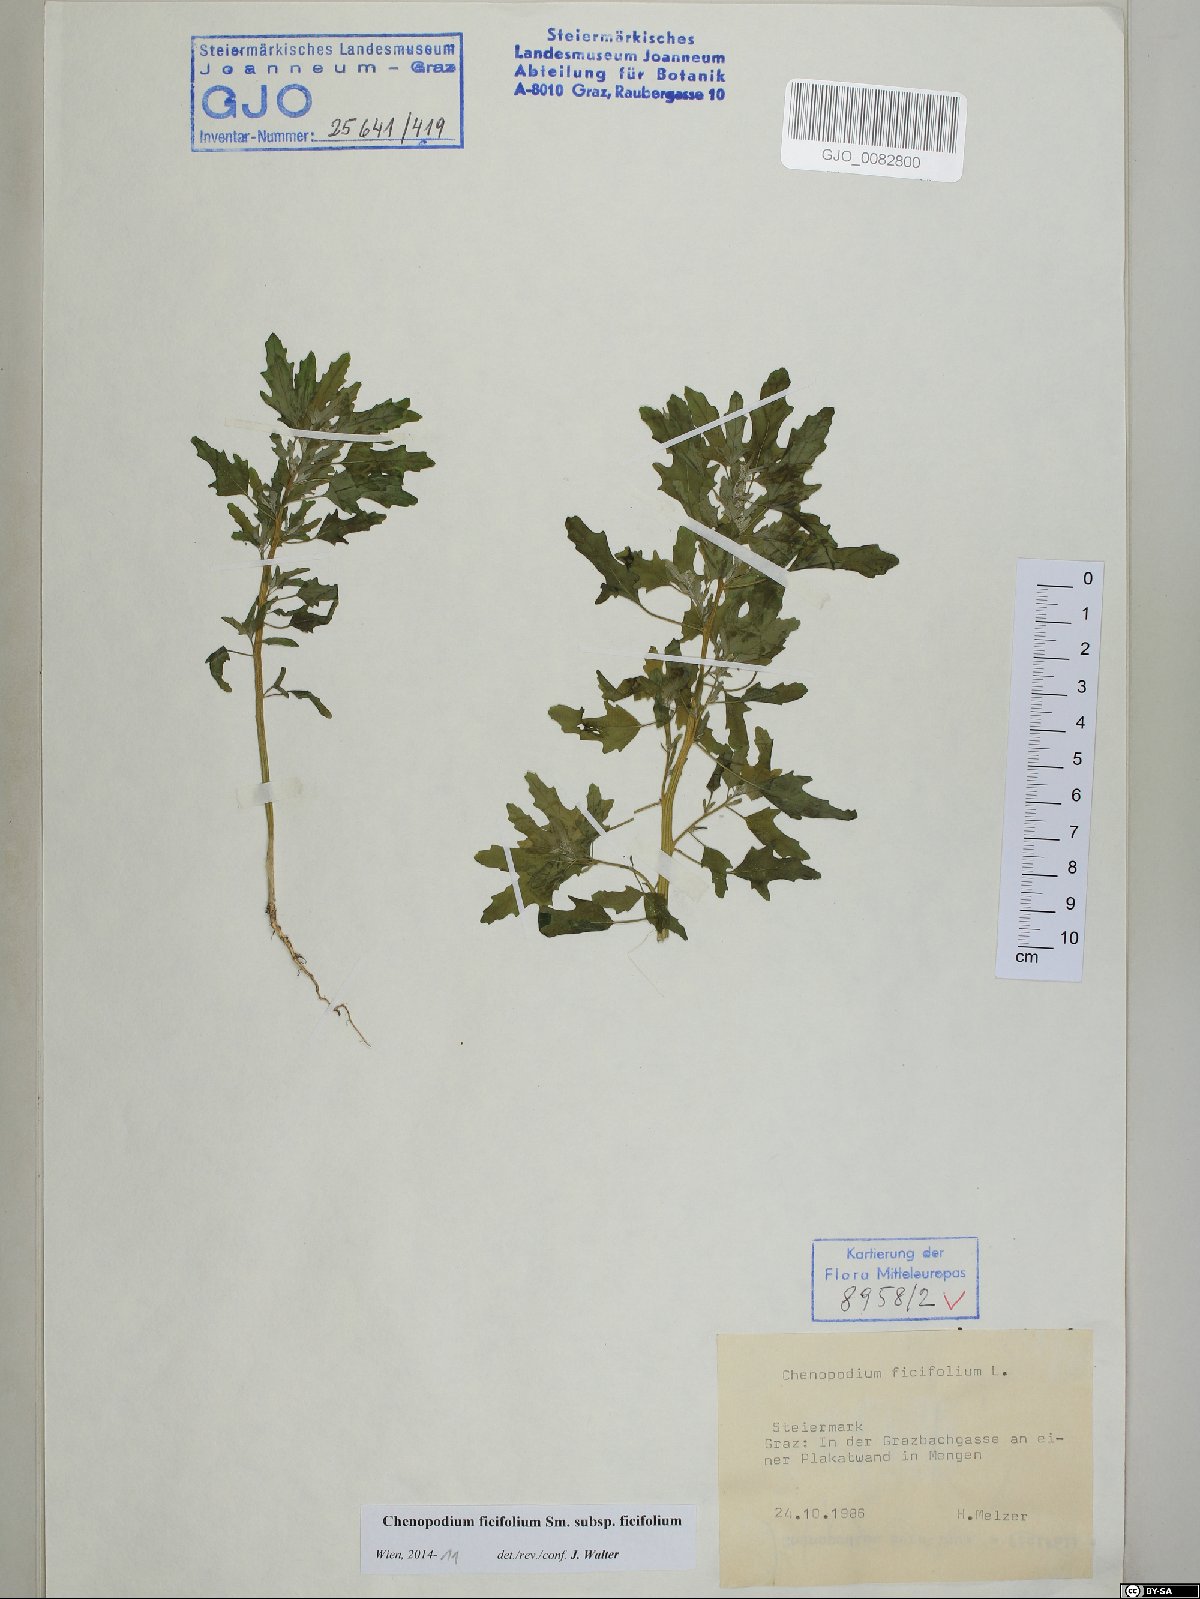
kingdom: Plantae
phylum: Tracheophyta
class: Magnoliopsida
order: Caryophyllales
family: Amaranthaceae
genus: Chenopodium
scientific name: Chenopodium ficifolium
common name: Fig-leaved goosefoot
